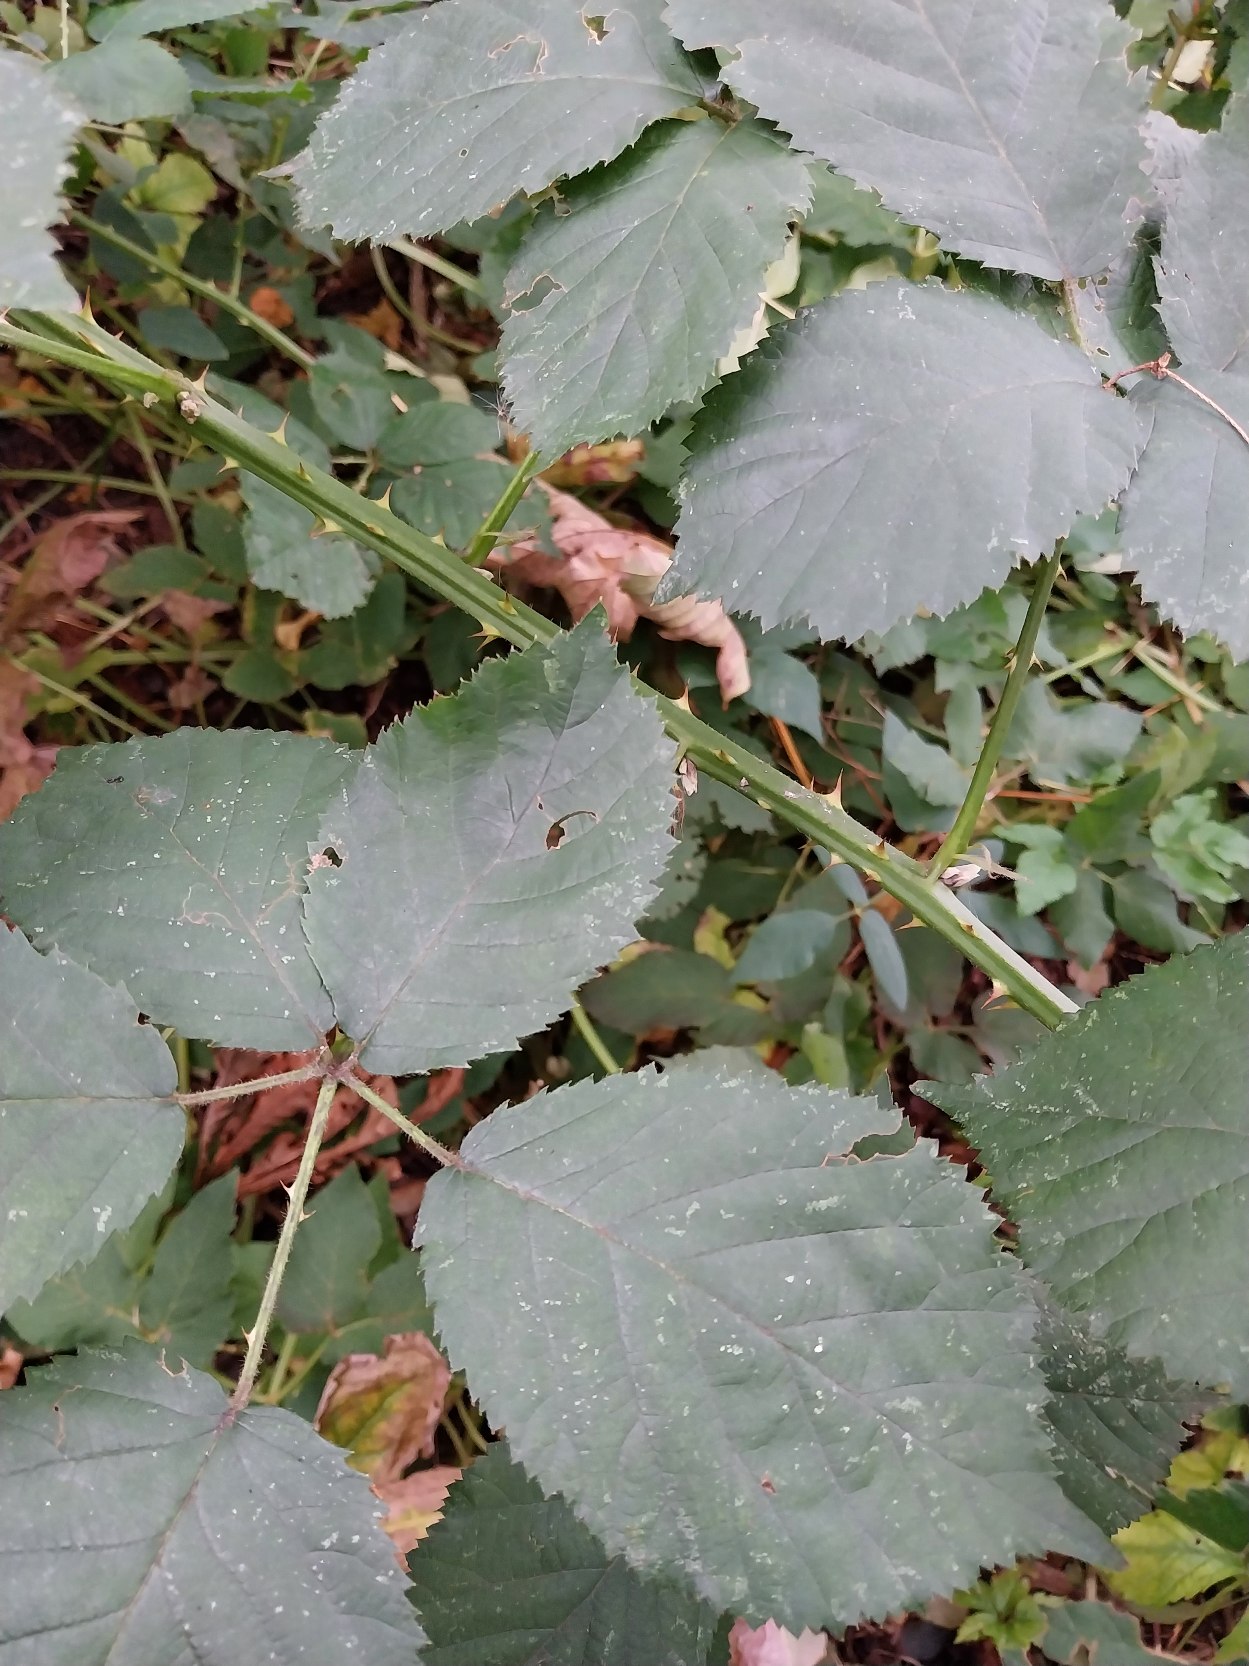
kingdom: Plantae
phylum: Tracheophyta
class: Magnoliopsida
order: Rosales
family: Rosaceae
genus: Rubus
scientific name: Rubus armeniacus
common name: Armensk brombær
